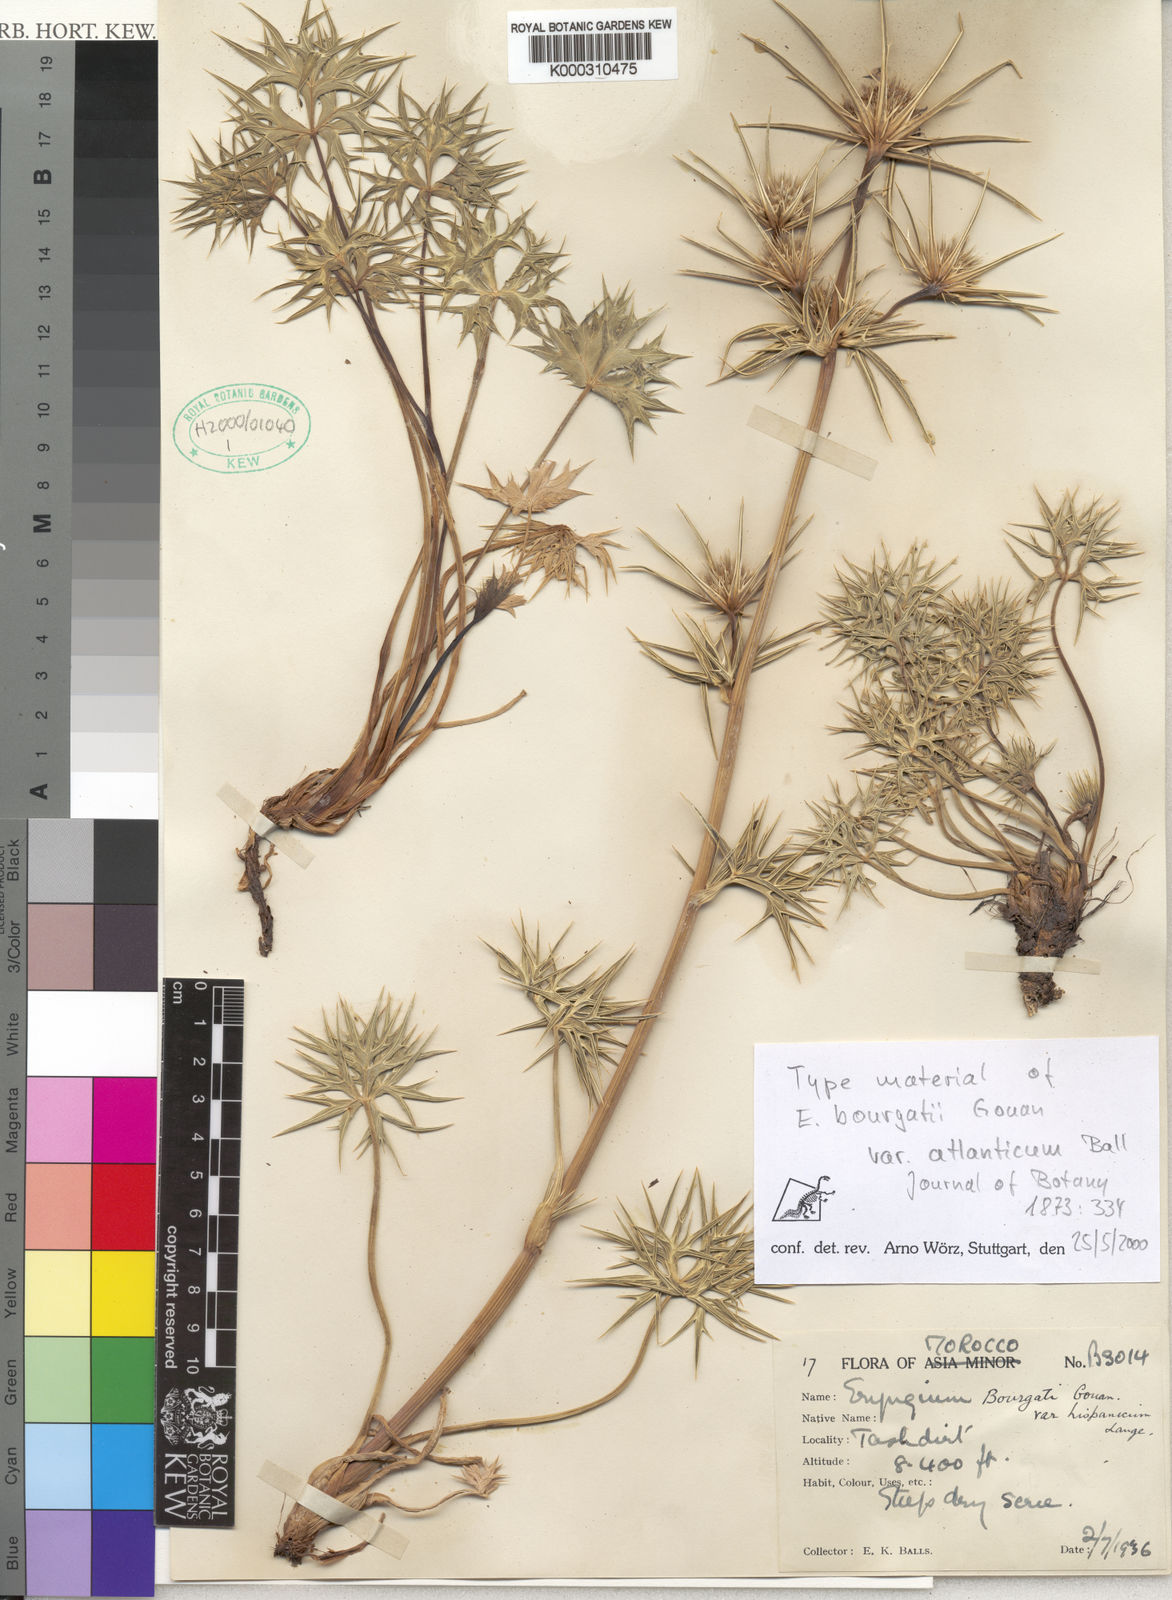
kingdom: Plantae
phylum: Tracheophyta
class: Magnoliopsida
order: Apiales
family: Apiaceae
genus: Eryngium
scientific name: Eryngium bourgatii
